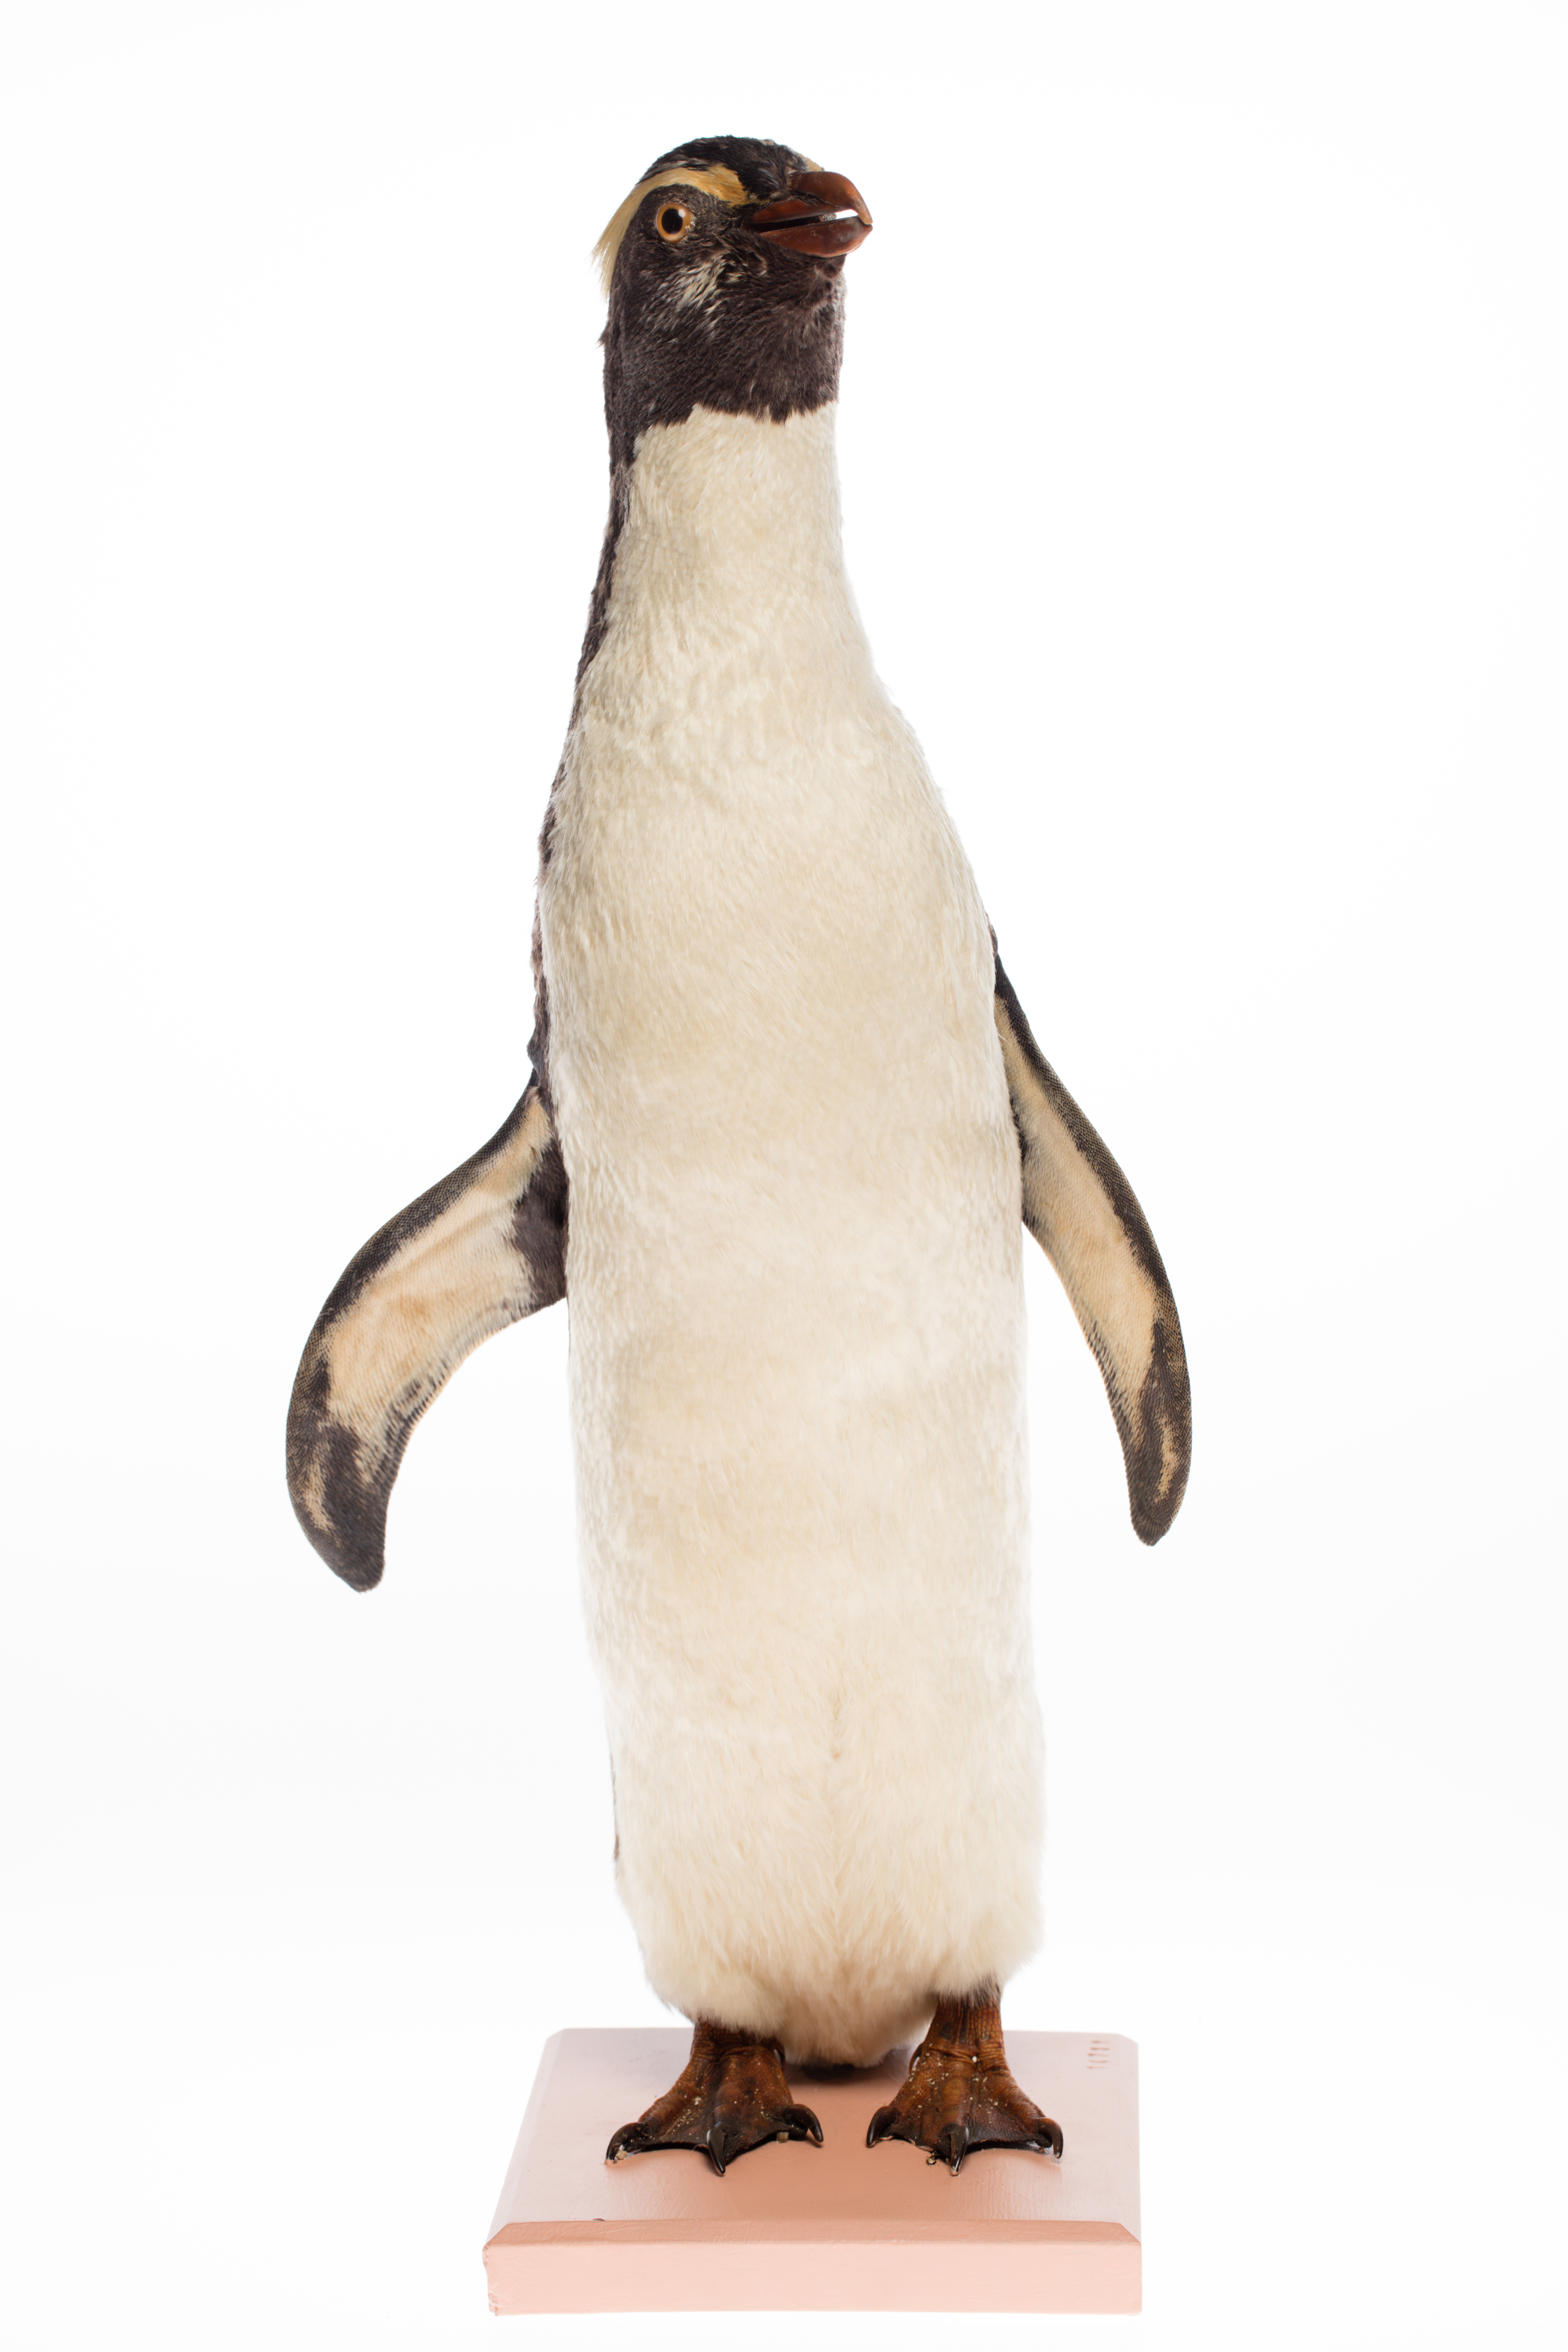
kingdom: Animalia
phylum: Chordata
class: Aves
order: Sphenisciformes
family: Spheniscidae
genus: Eudyptes
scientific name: Eudyptes pachyrhynchus
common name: Fiordland penguin
